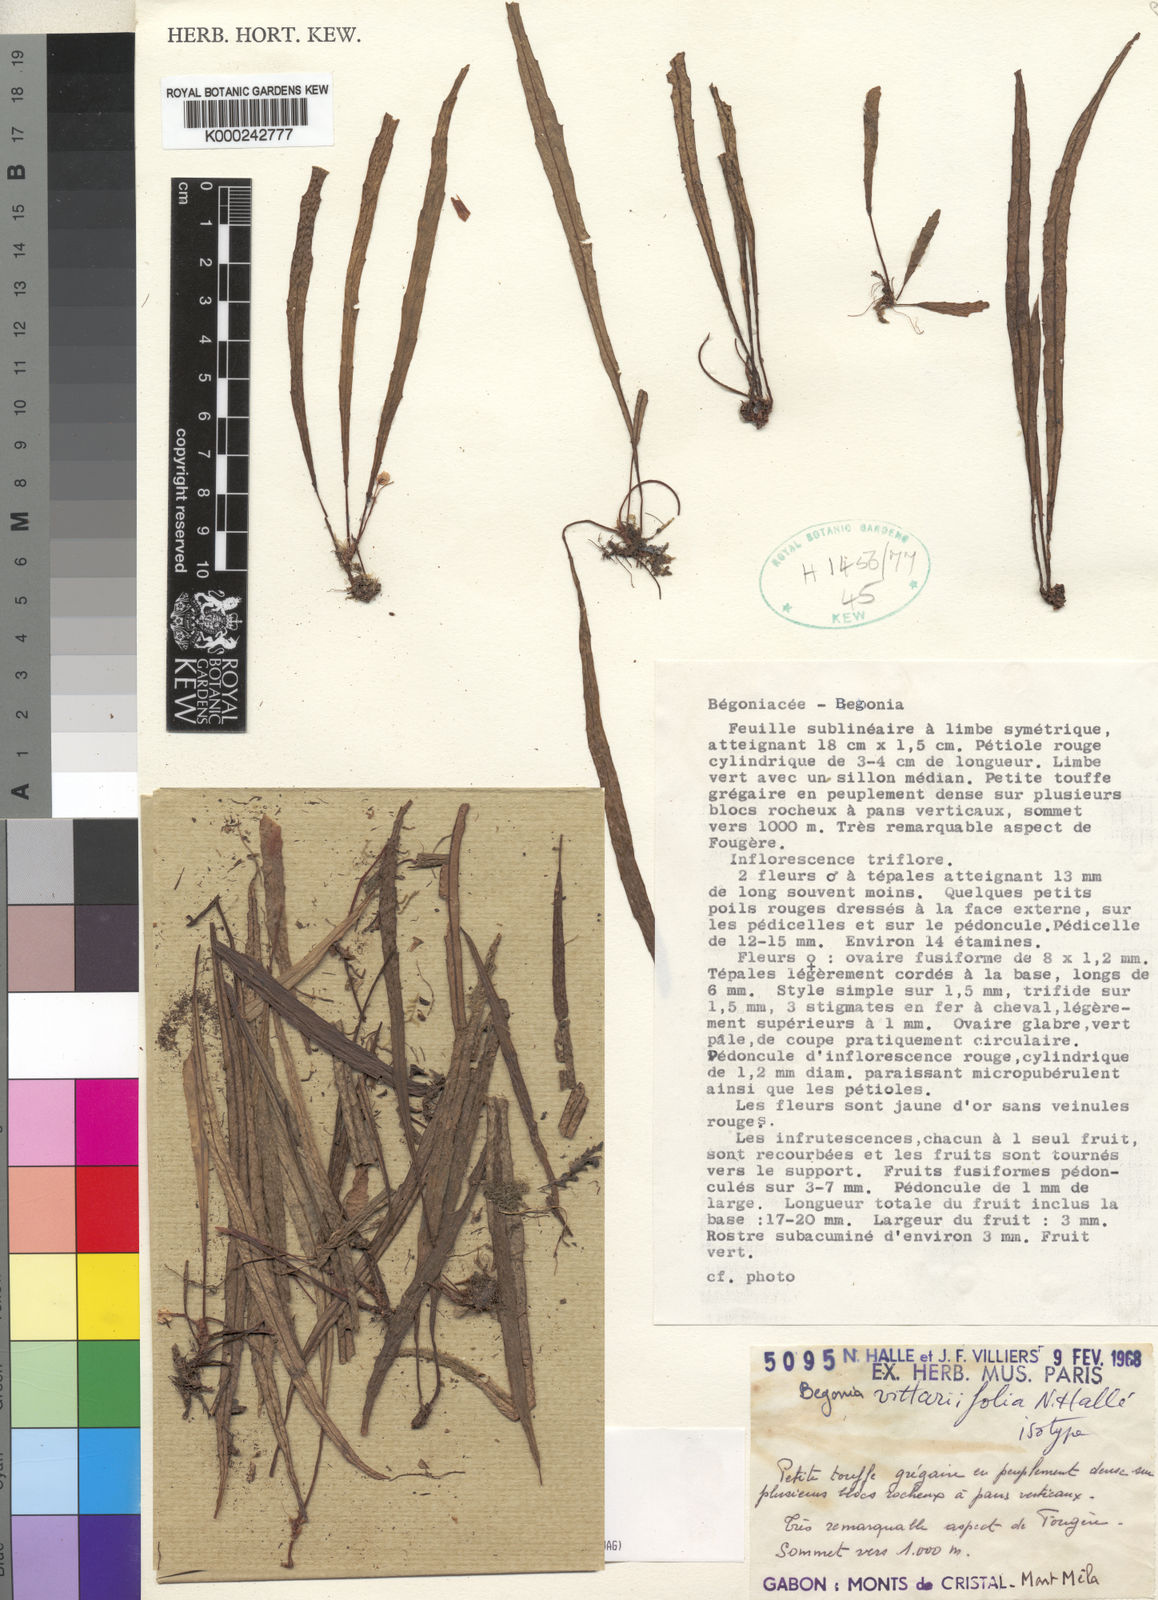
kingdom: Plantae
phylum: Tracheophyta
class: Magnoliopsida
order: Cucurbitales
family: Begoniaceae
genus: Begonia
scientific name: Begonia
